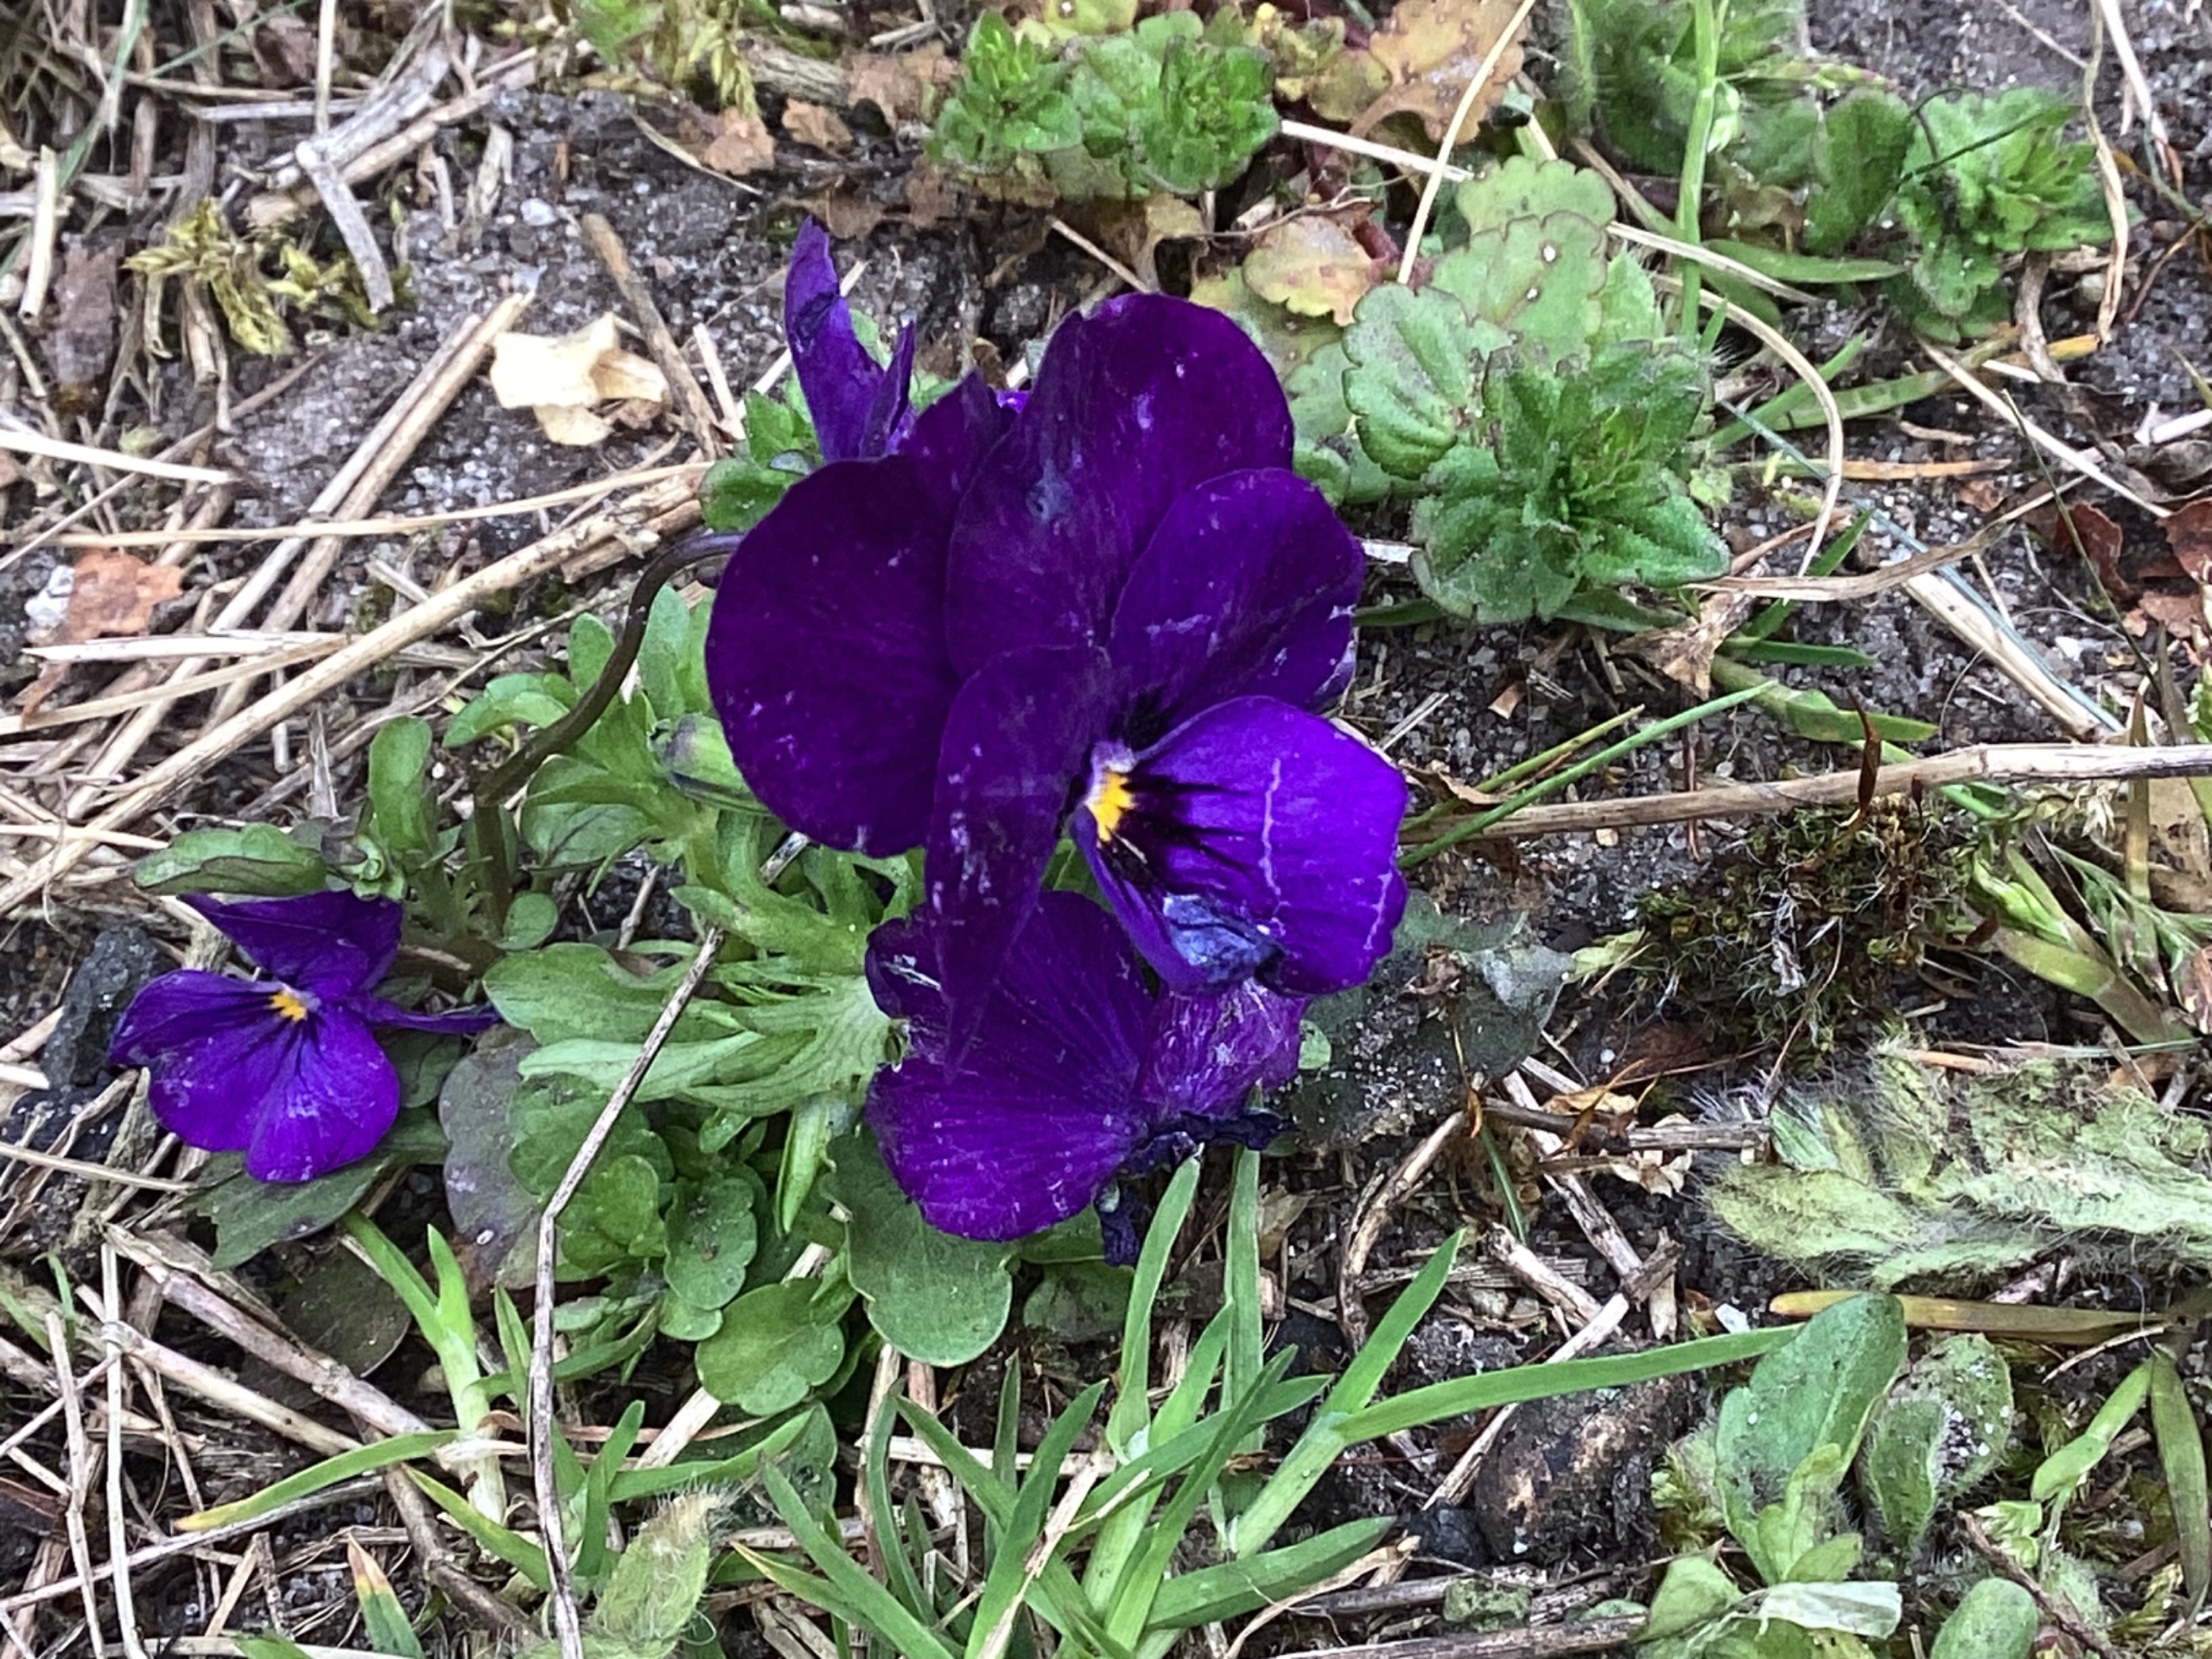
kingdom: Plantae
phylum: Tracheophyta
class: Magnoliopsida
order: Malpighiales
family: Violaceae
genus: Viola
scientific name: Viola wittrockiana
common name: Have-stedmoderblomst
